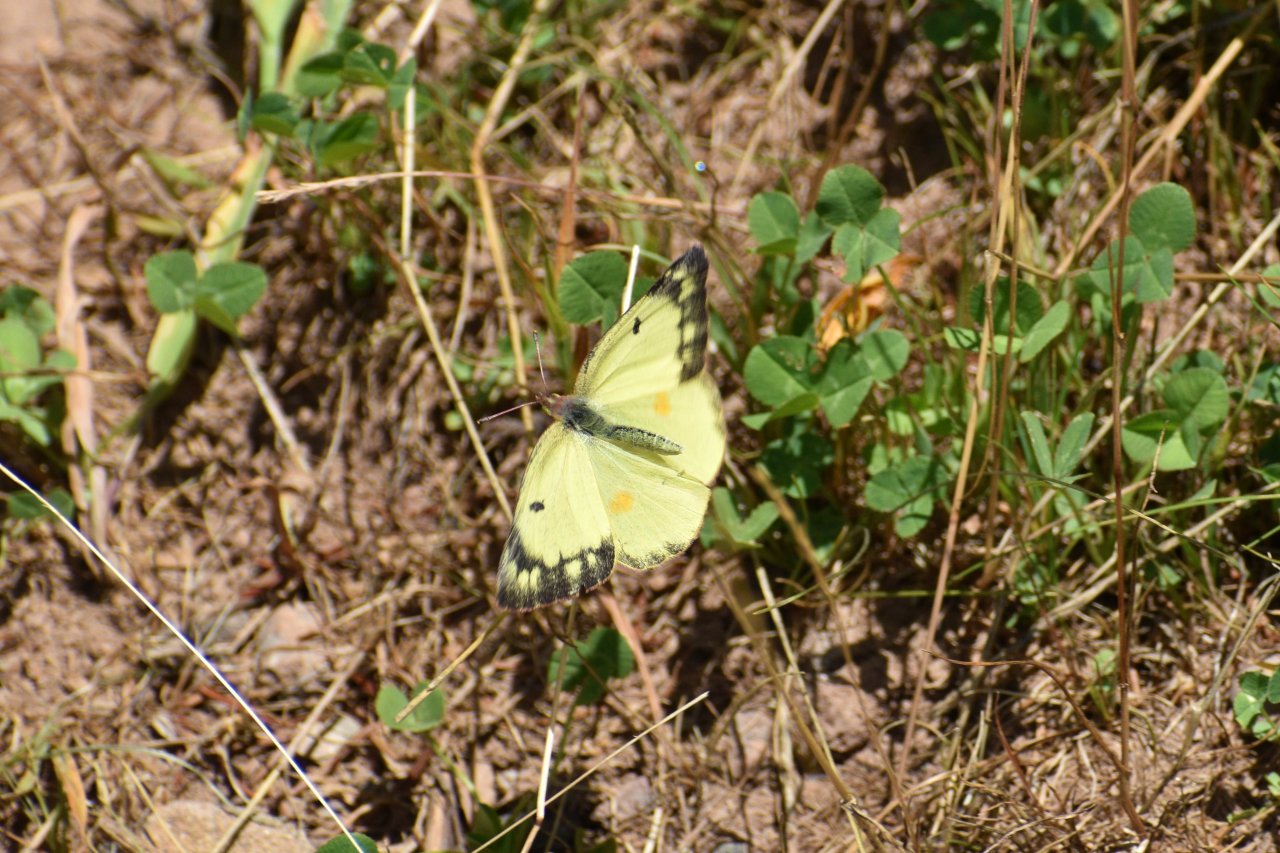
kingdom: Animalia
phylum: Arthropoda
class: Insecta
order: Lepidoptera
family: Pieridae
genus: Colias
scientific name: Colias philodice
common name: Clouded Sulphur
